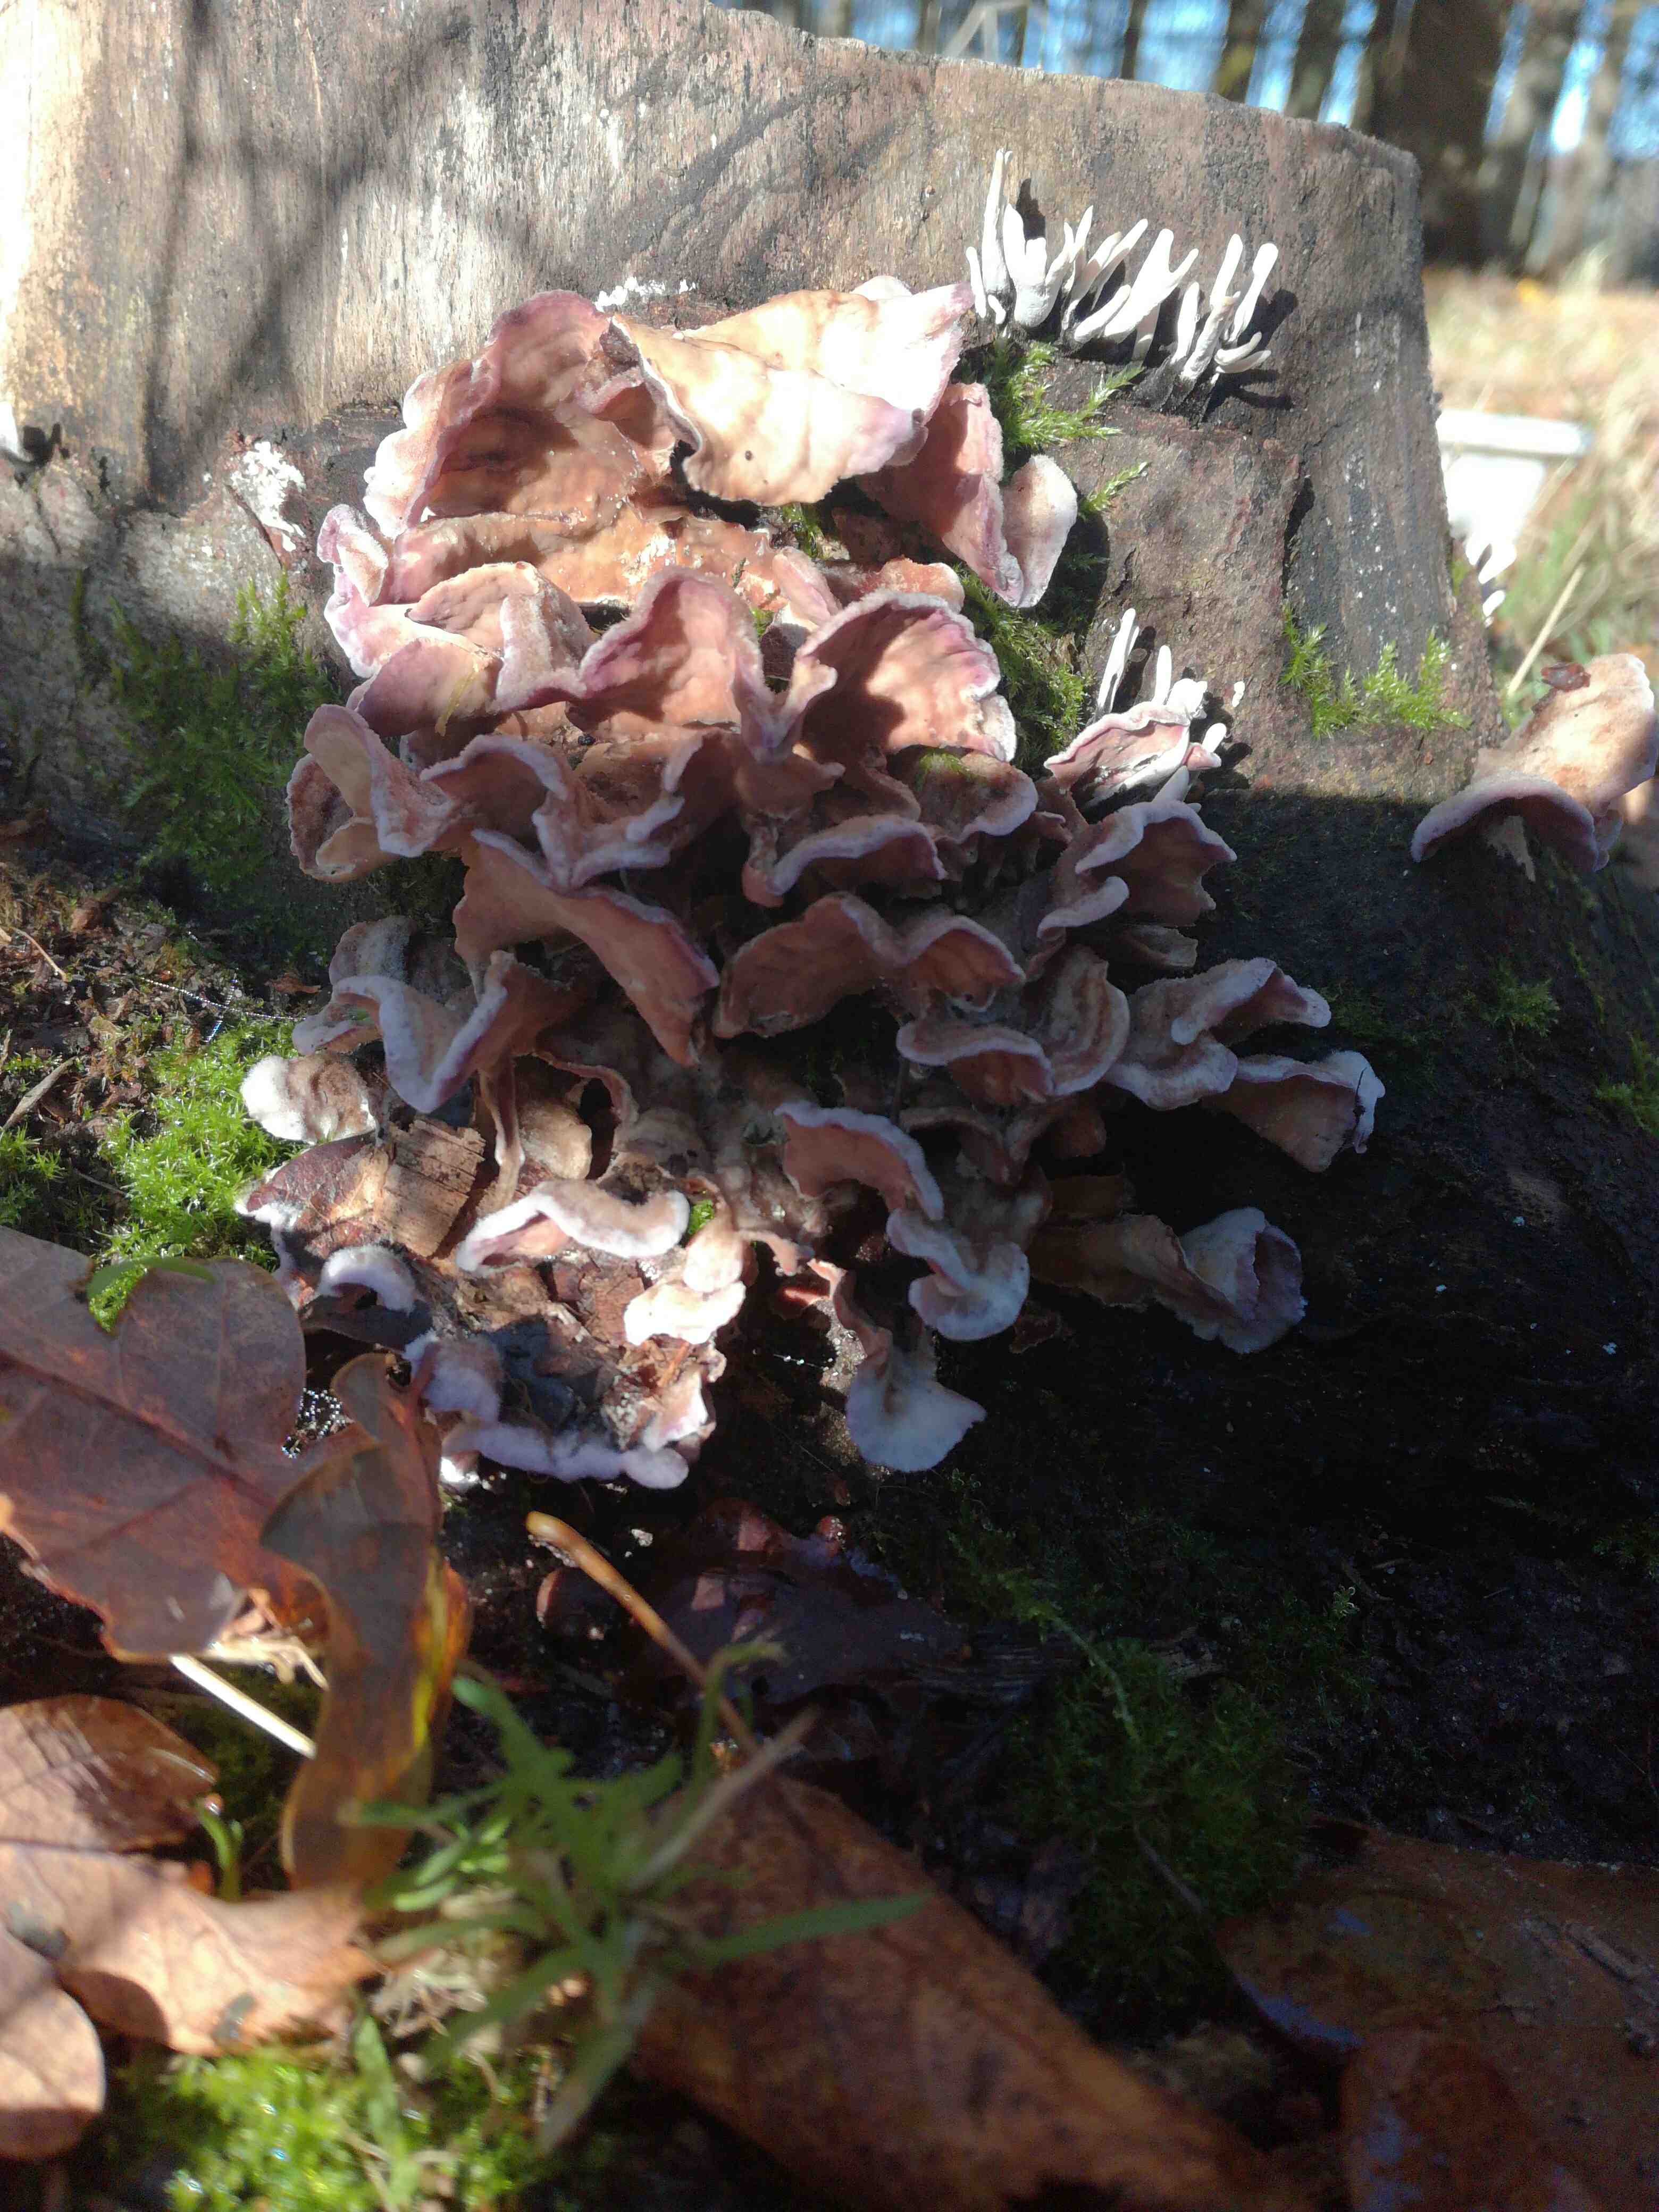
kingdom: Fungi
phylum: Basidiomycota
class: Agaricomycetes
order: Agaricales
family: Cyphellaceae
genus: Chondrostereum
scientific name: Chondrostereum purpureum
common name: purpurlædersvamp
